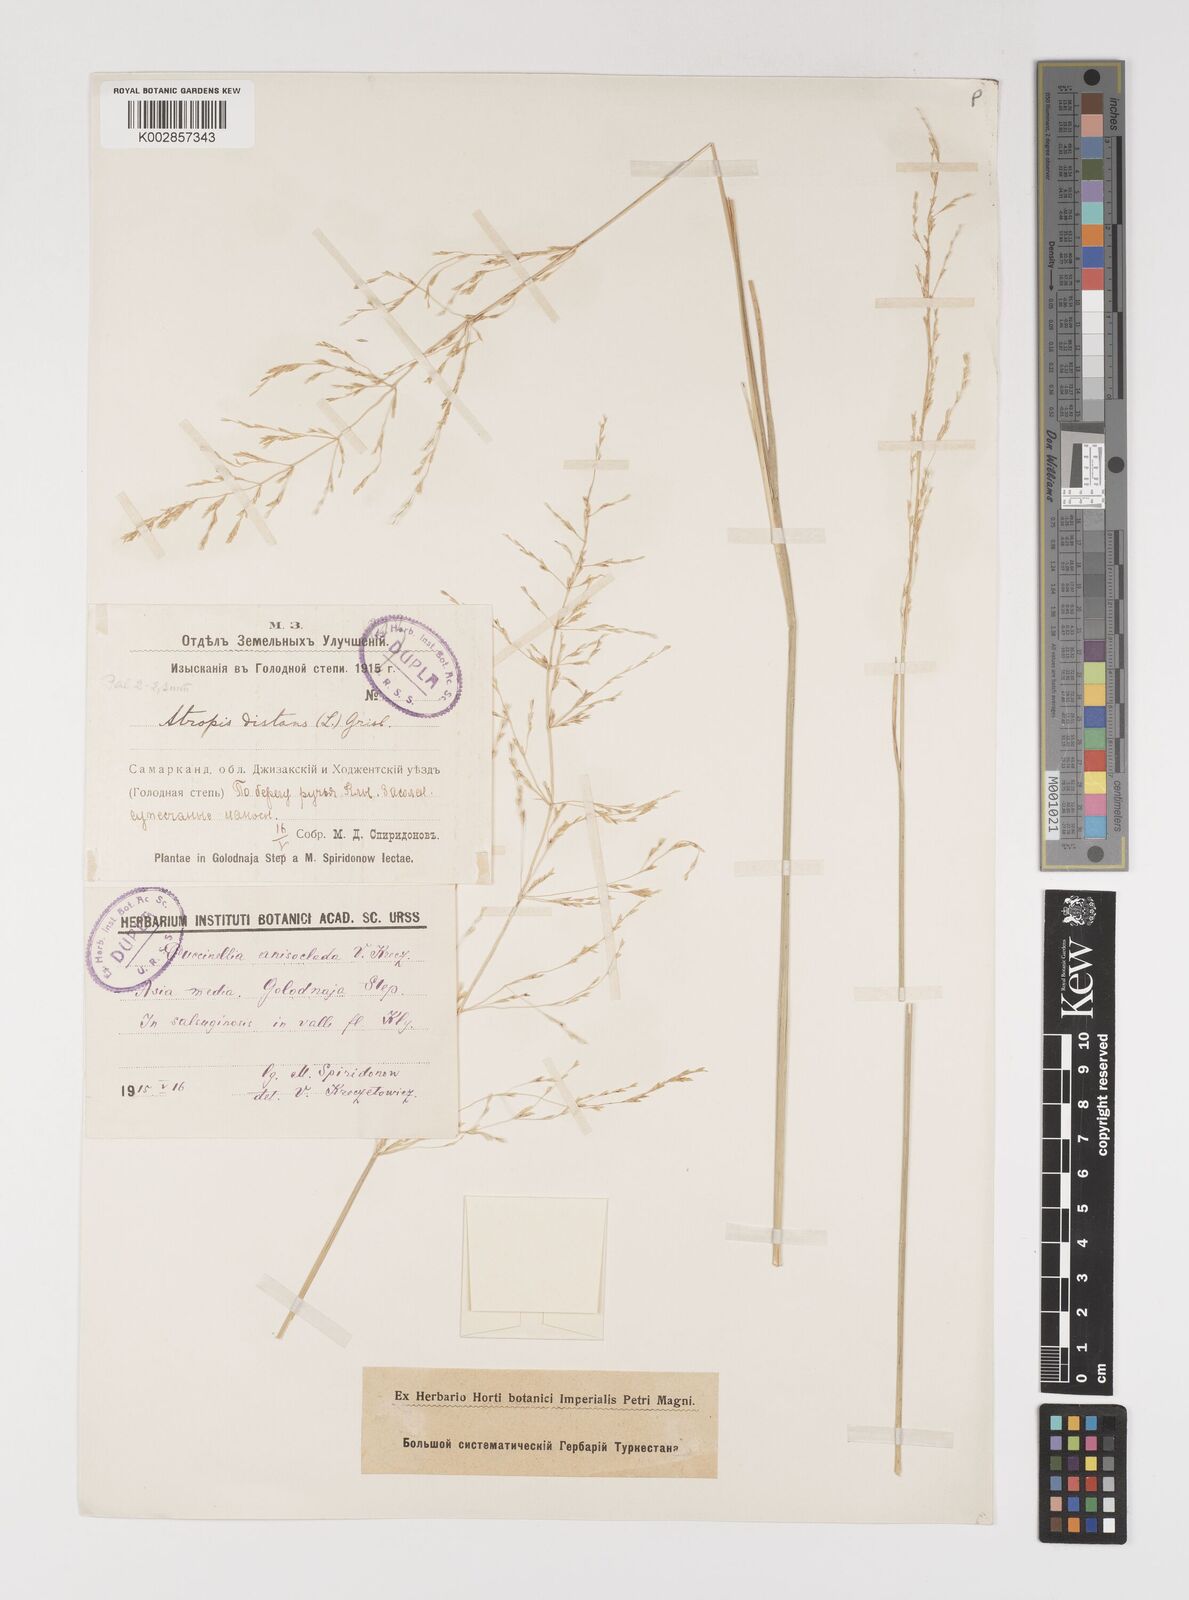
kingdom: Plantae
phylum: Tracheophyta
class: Liliopsida
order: Poales
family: Poaceae
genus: Puccinellia
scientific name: Puccinellia gigantea
